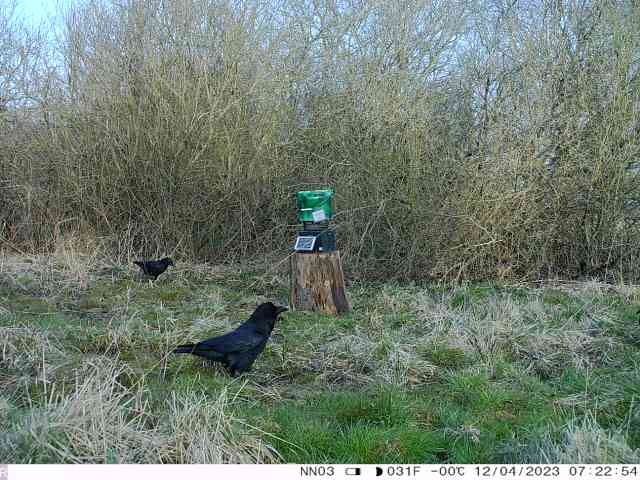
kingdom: Animalia
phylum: Chordata
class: Aves
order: Passeriformes
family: Corvidae
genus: Corvus
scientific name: Corvus corax
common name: Ravn
